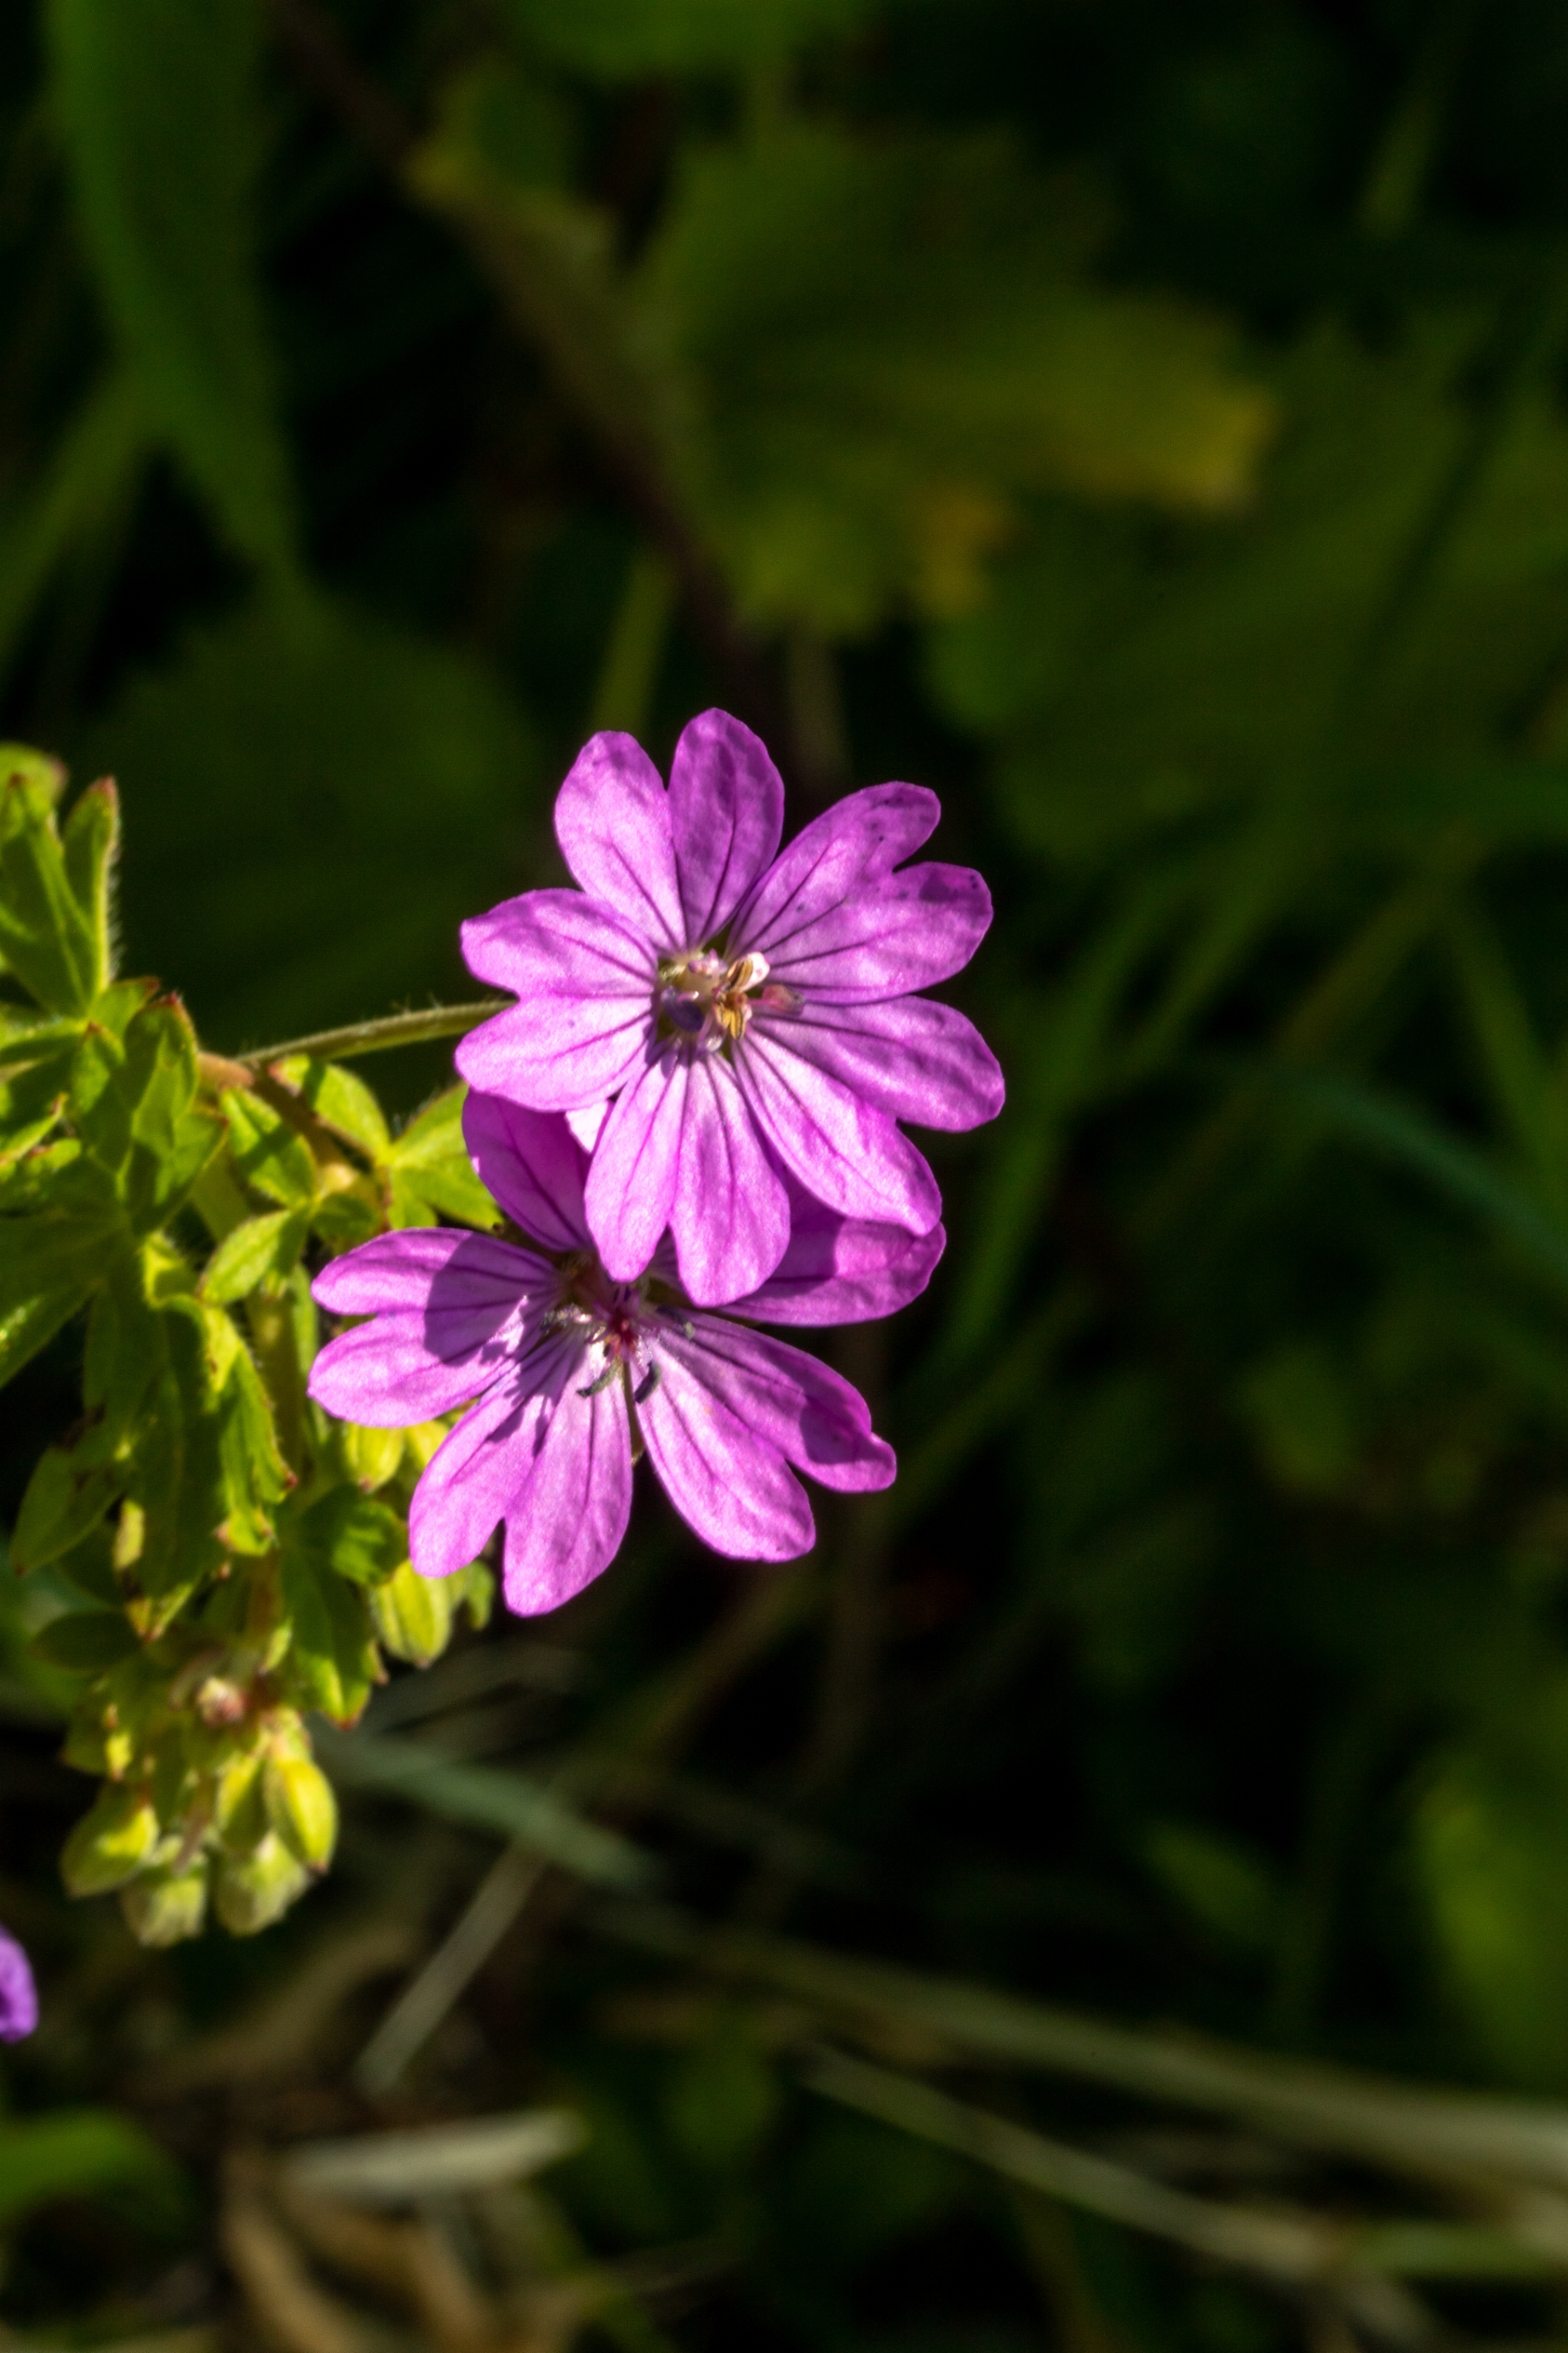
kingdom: Plantae
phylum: Tracheophyta
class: Magnoliopsida
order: Geraniales
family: Geraniaceae
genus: Geranium
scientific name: Geranium pyrenaicum
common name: Pyrenæisk storkenæb
